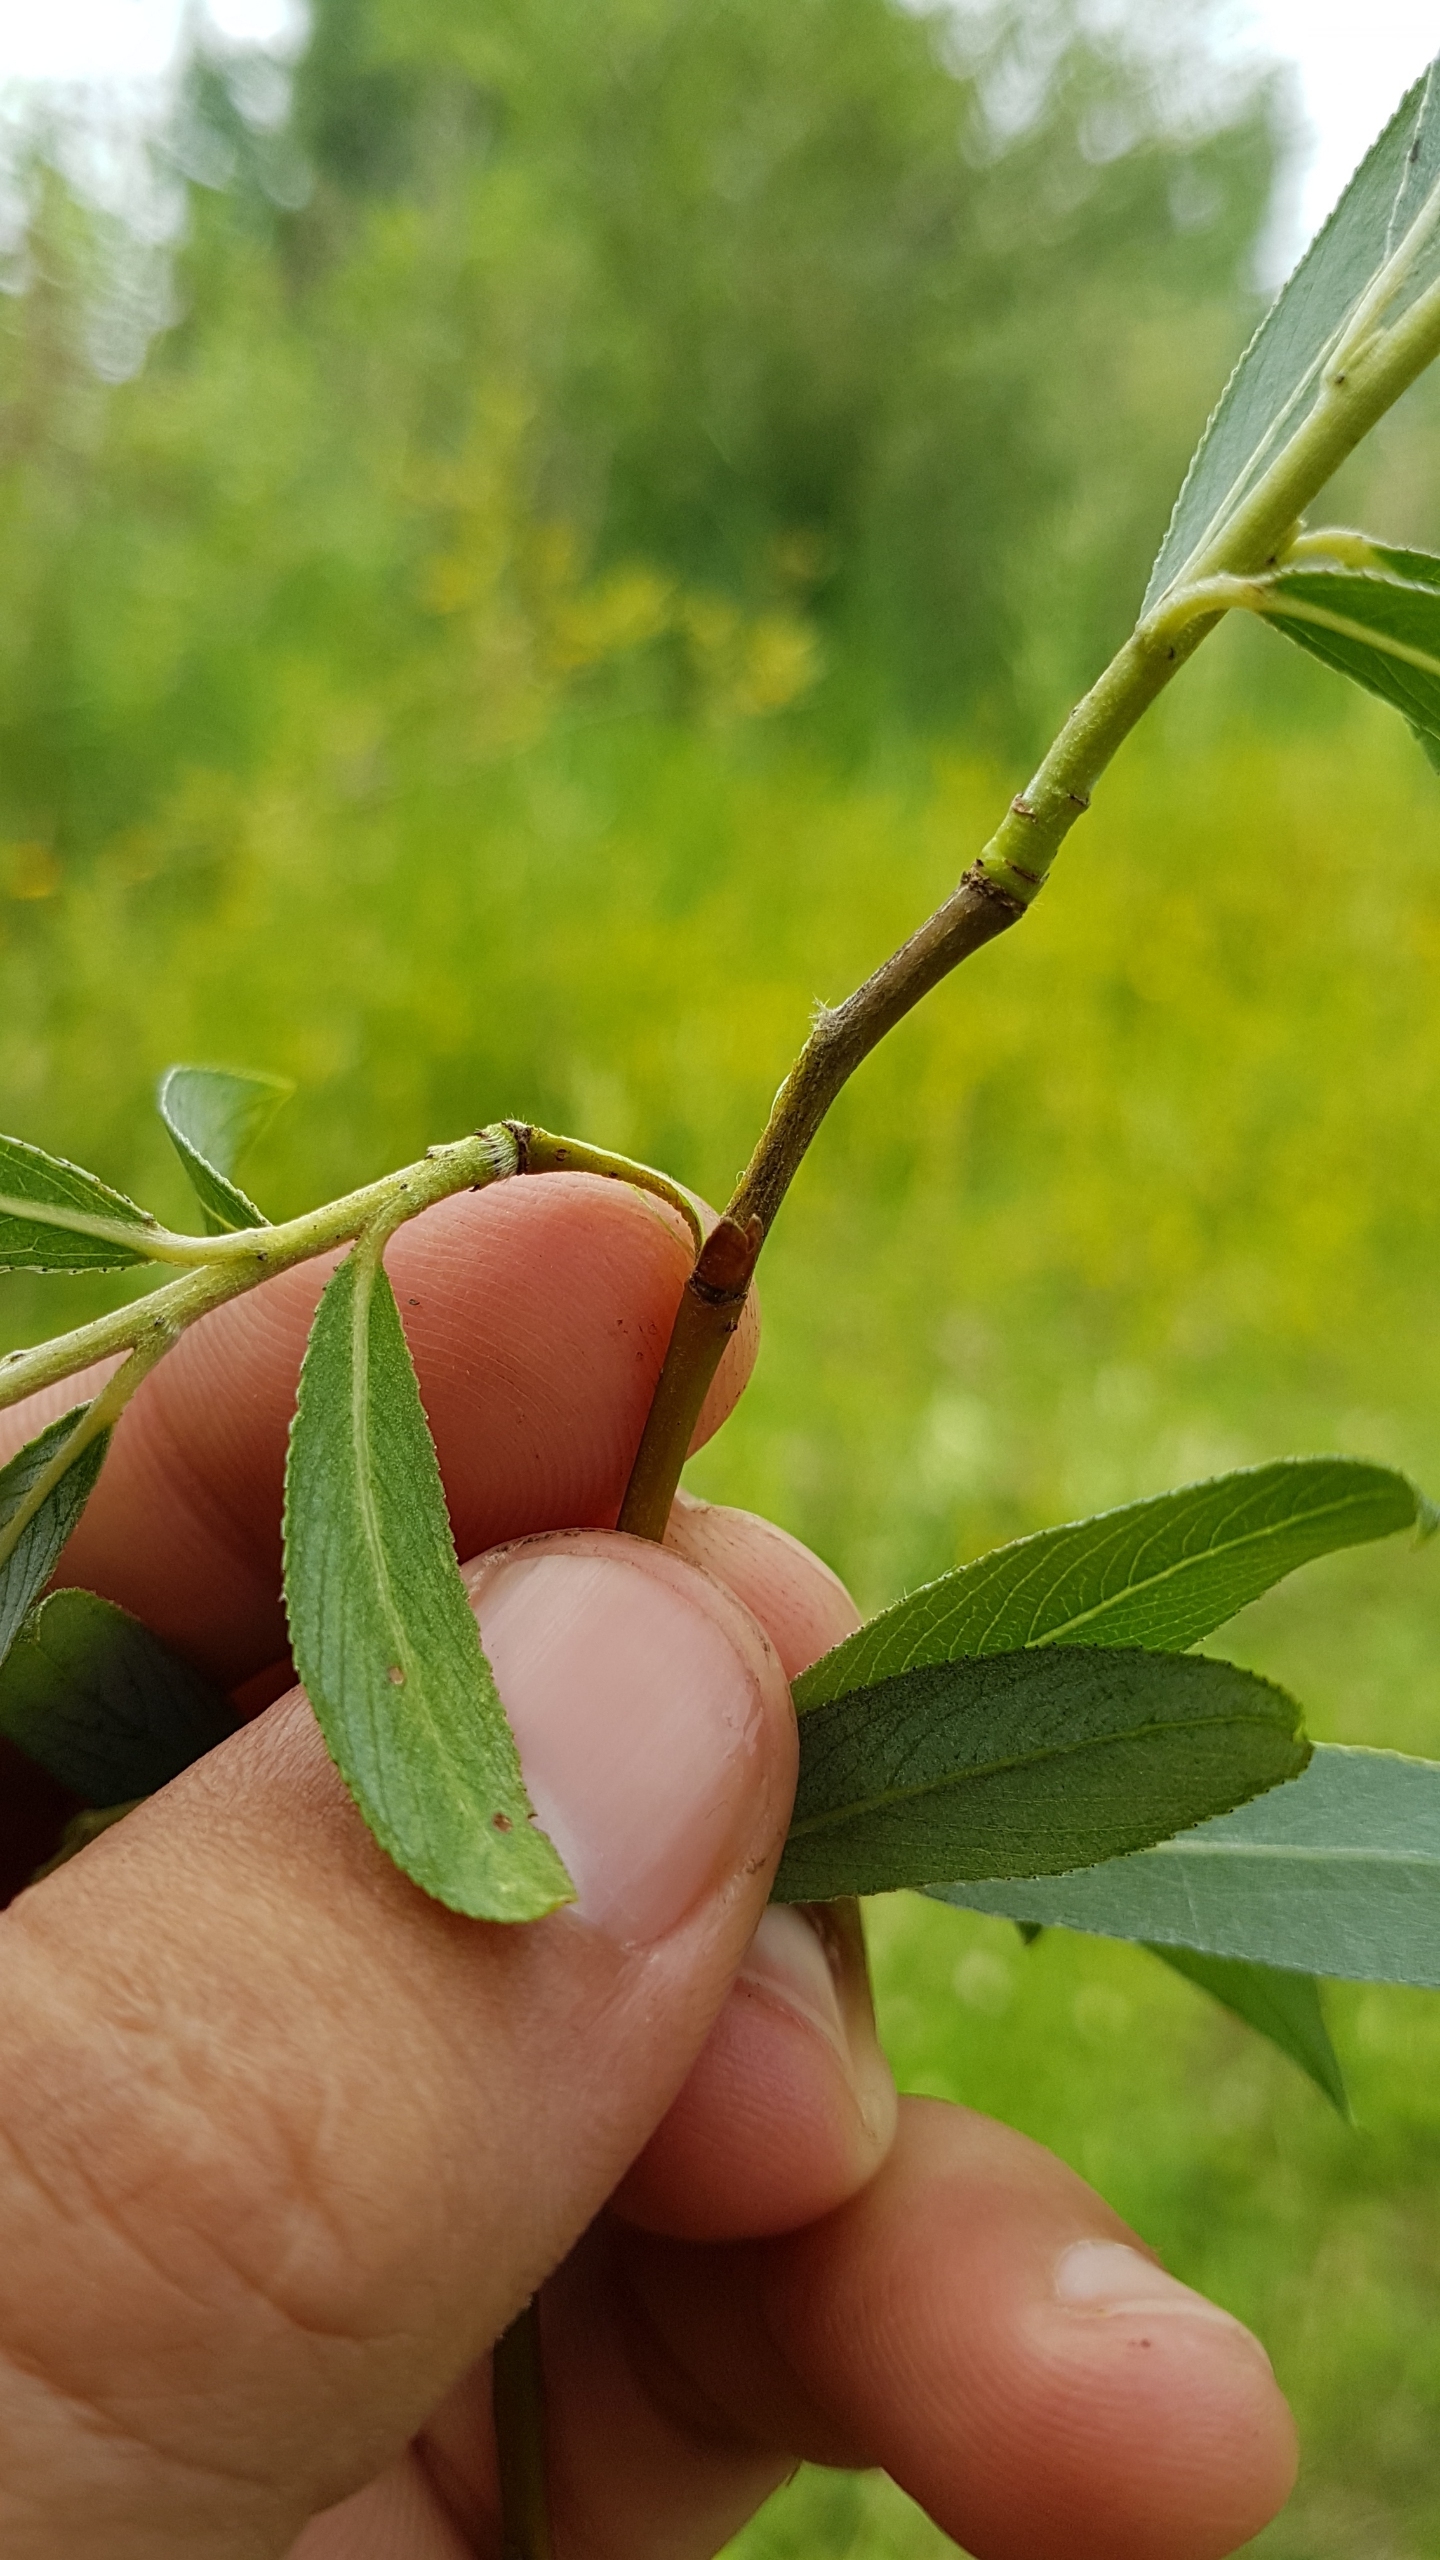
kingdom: Plantae
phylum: Tracheophyta
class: Magnoliopsida
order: Malpighiales
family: Salicaceae
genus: Salix
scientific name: Salix alba
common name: Hvid-pil
